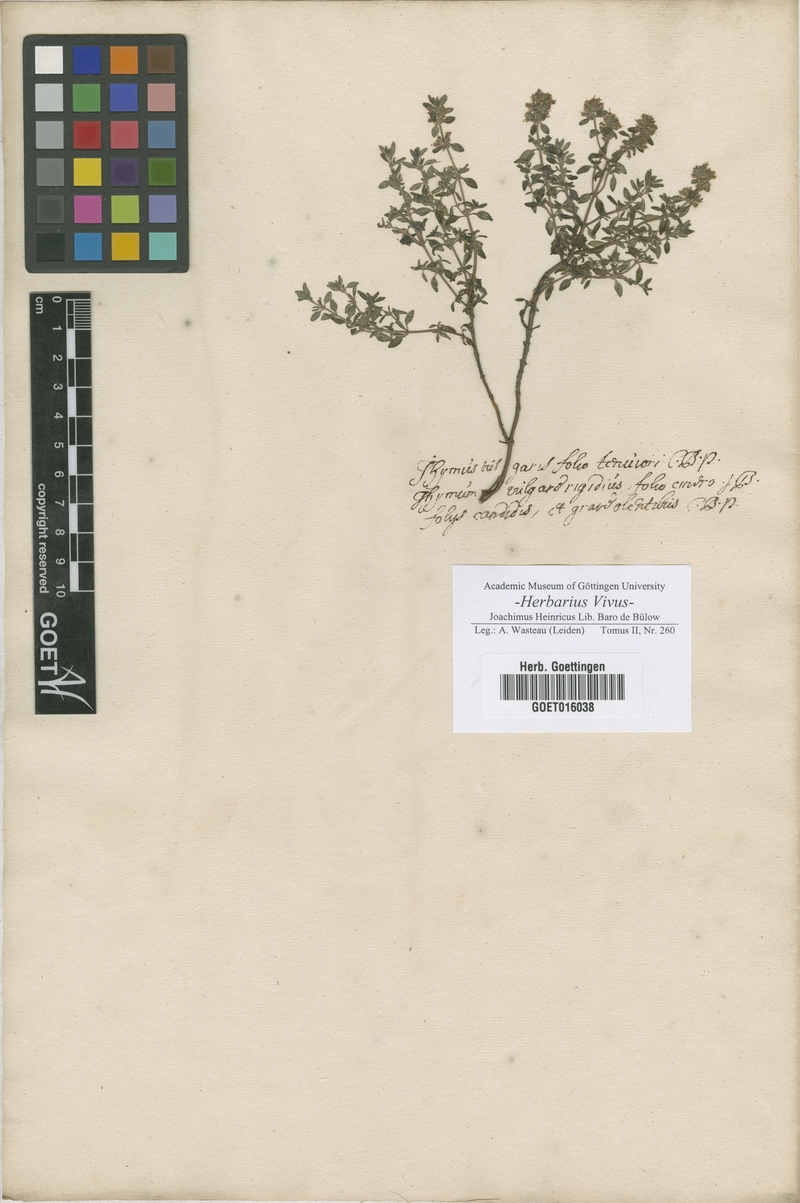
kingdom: Plantae
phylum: Tracheophyta
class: Magnoliopsida
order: Lamiales
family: Lamiaceae
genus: Thymus
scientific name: Thymus vulgaris
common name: Garden thyme
